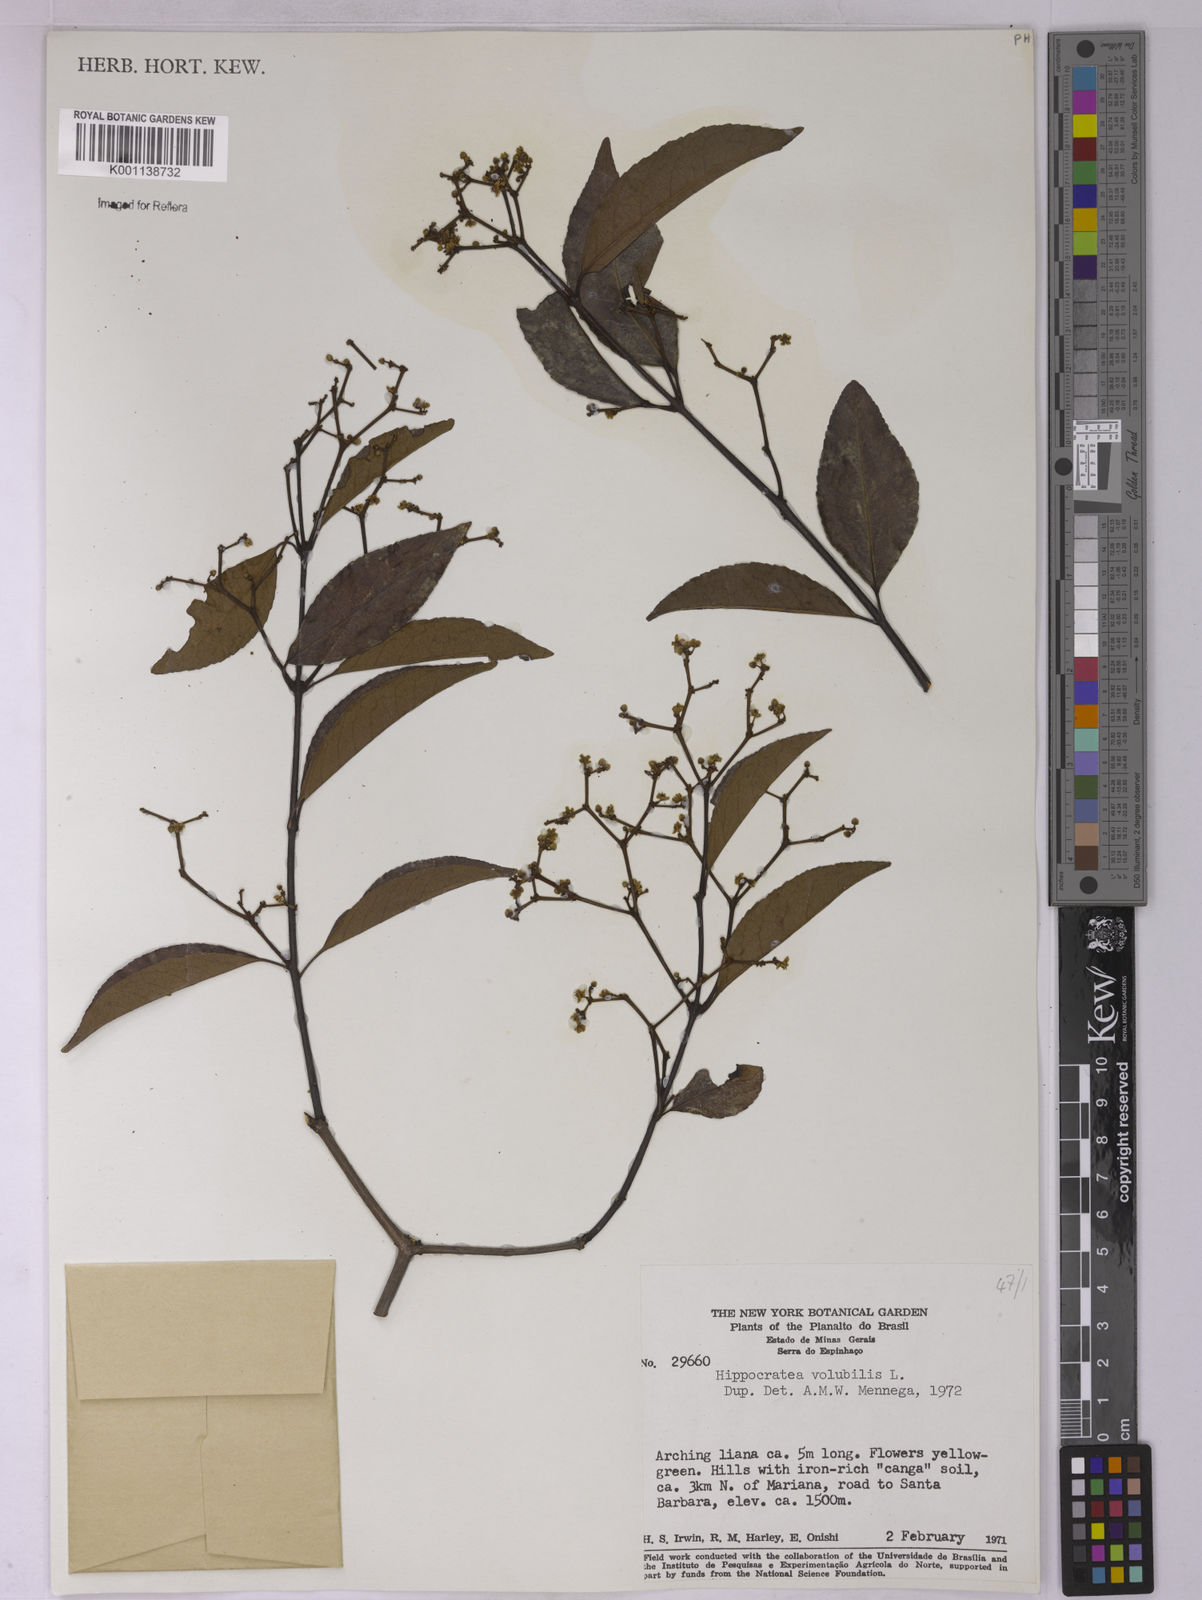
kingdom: Plantae
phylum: Tracheophyta
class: Magnoliopsida
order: Celastrales
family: Celastraceae
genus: Hippocratea
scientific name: Hippocratea volubilis
